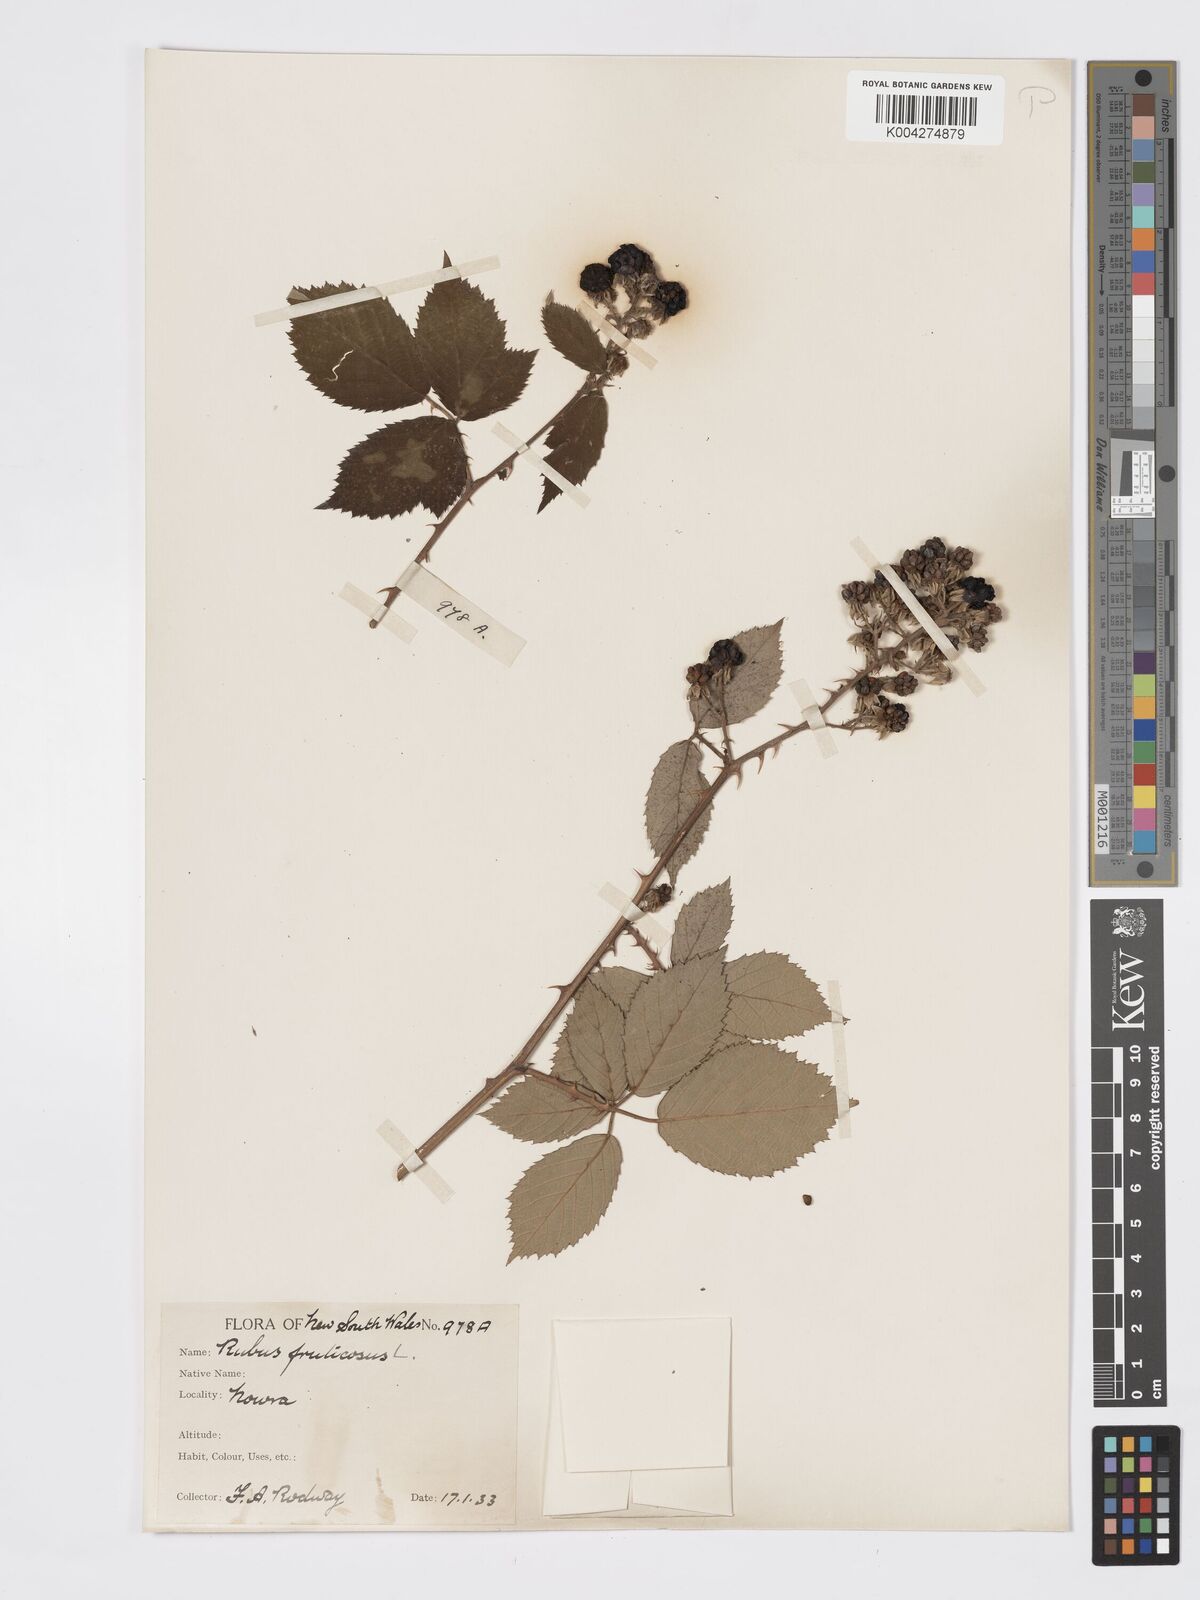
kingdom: Plantae
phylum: Tracheophyta
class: Magnoliopsida
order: Rosales
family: Rosaceae
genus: Rubus
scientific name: Rubus fruticosus
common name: Blackberry, bramble
